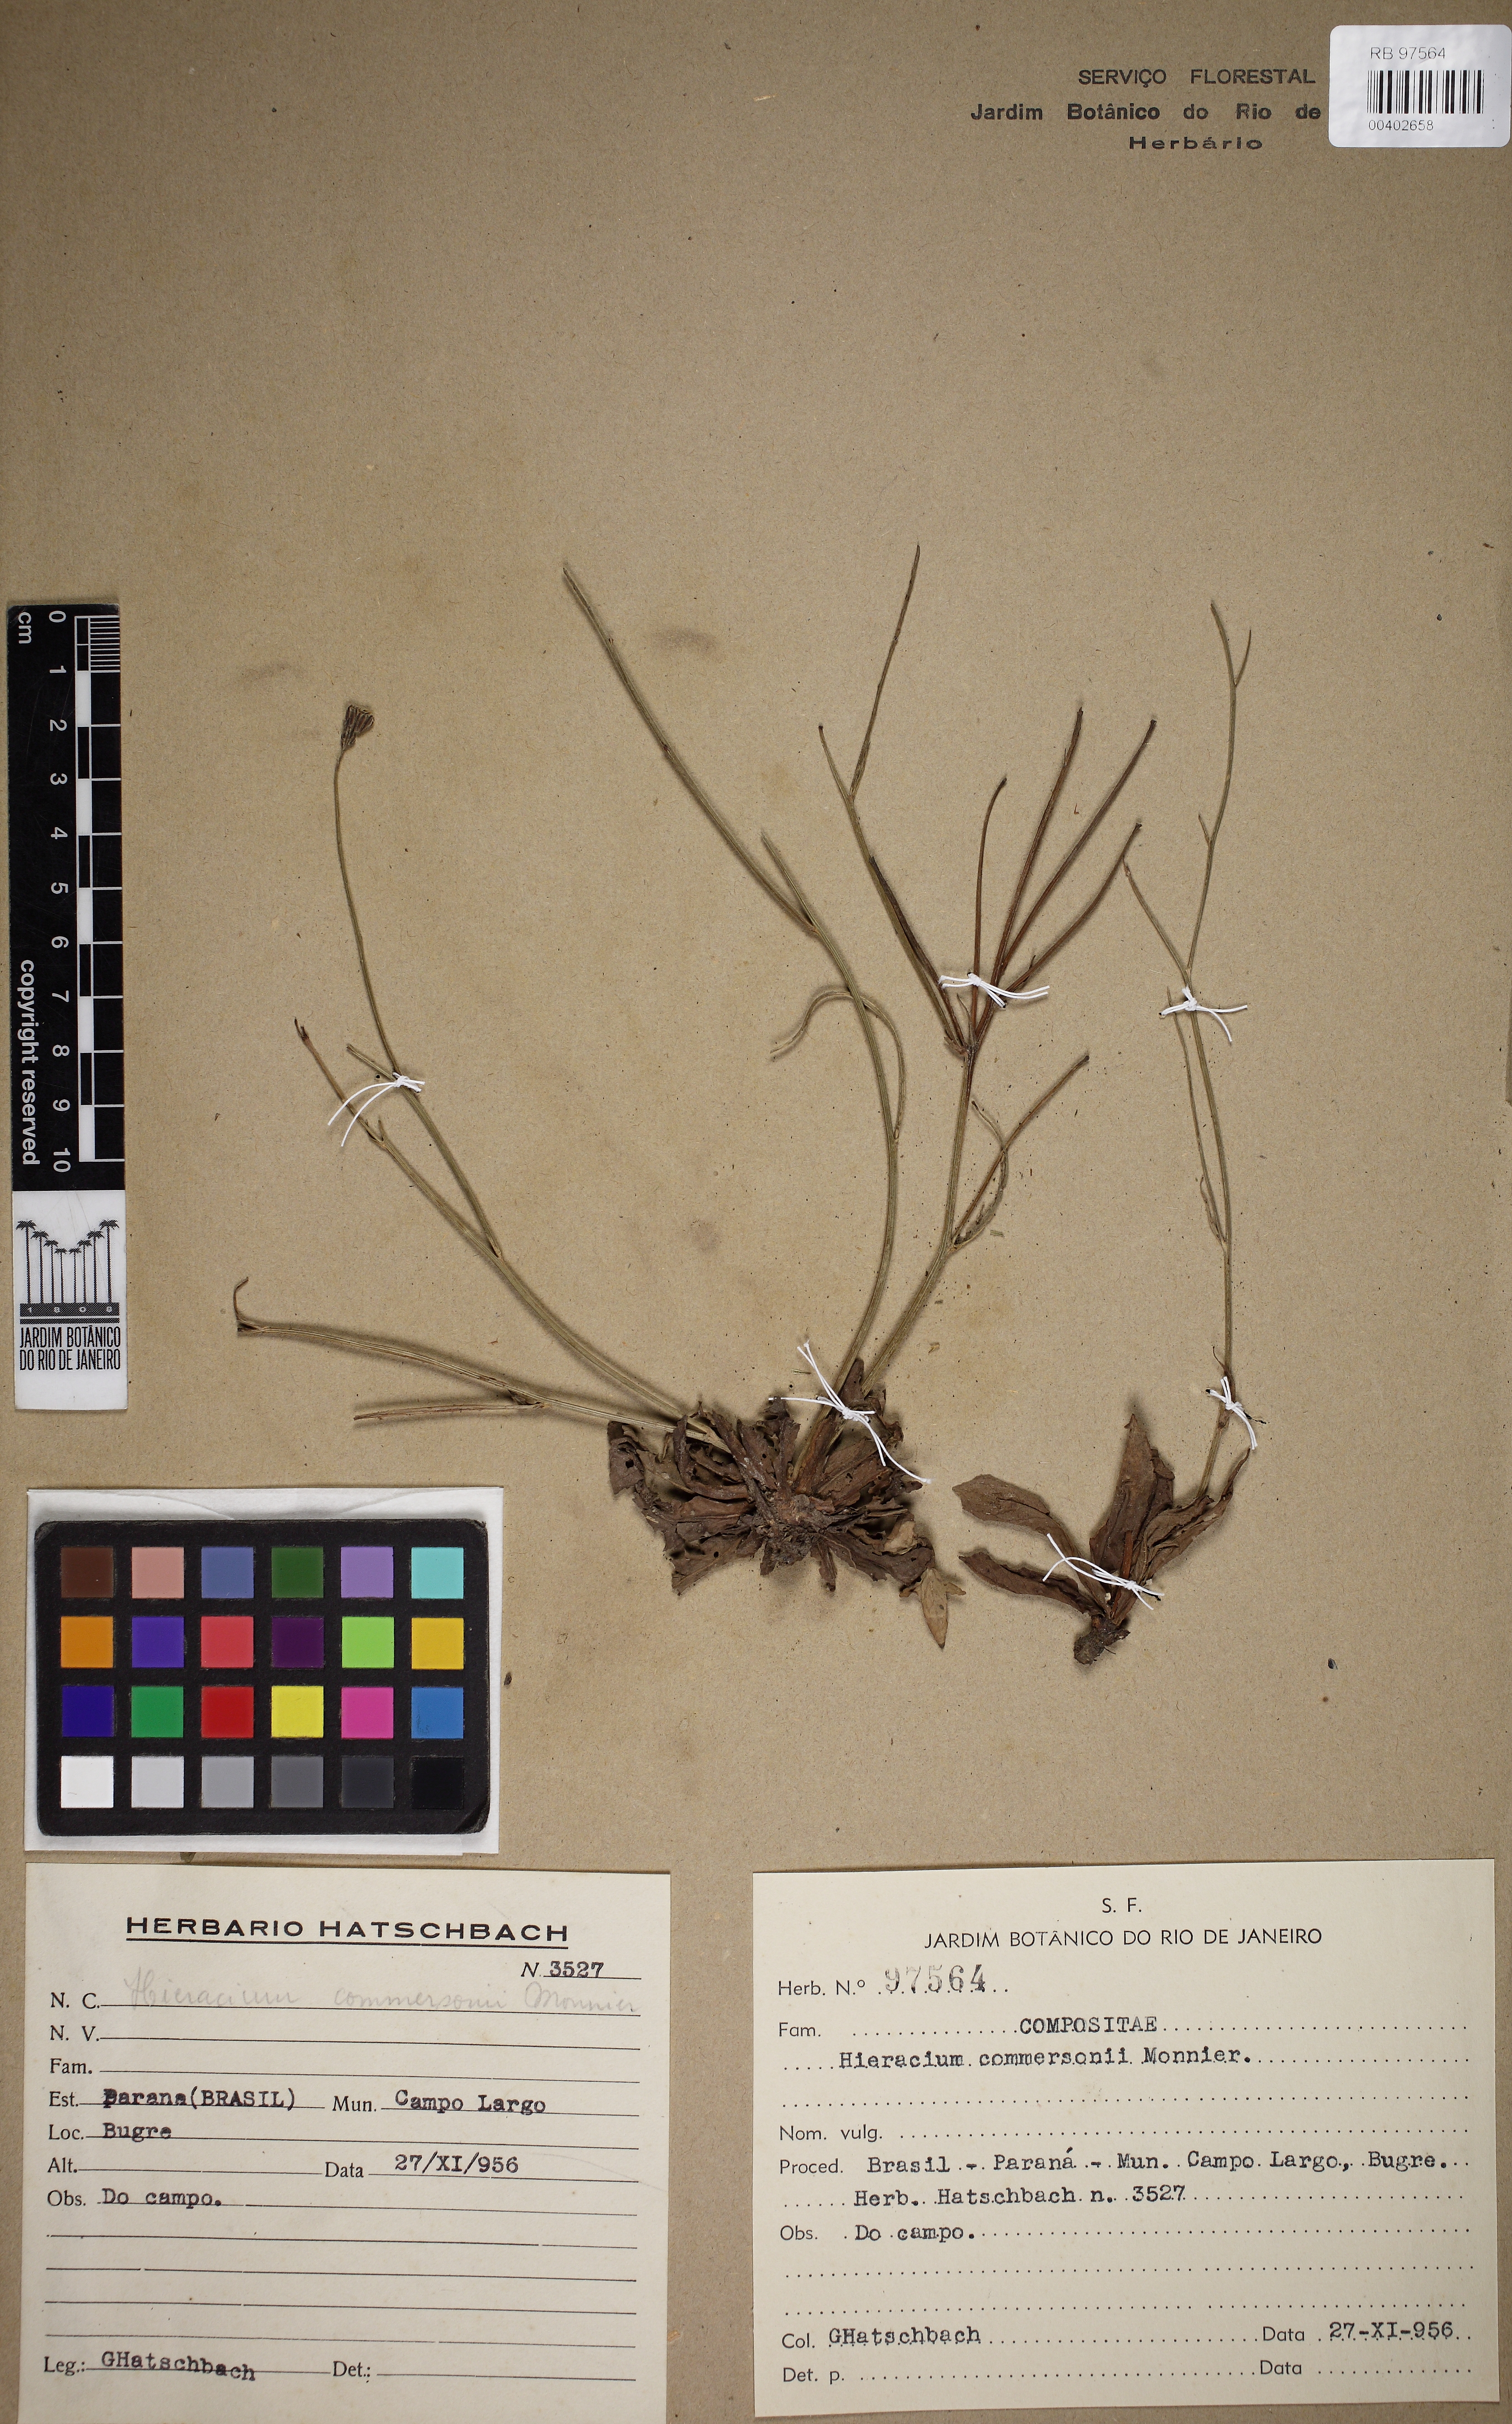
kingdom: Plantae
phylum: Tracheophyta
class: Magnoliopsida
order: Asterales
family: Asteraceae
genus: Hieracium
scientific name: Hieracium semiglabratum
